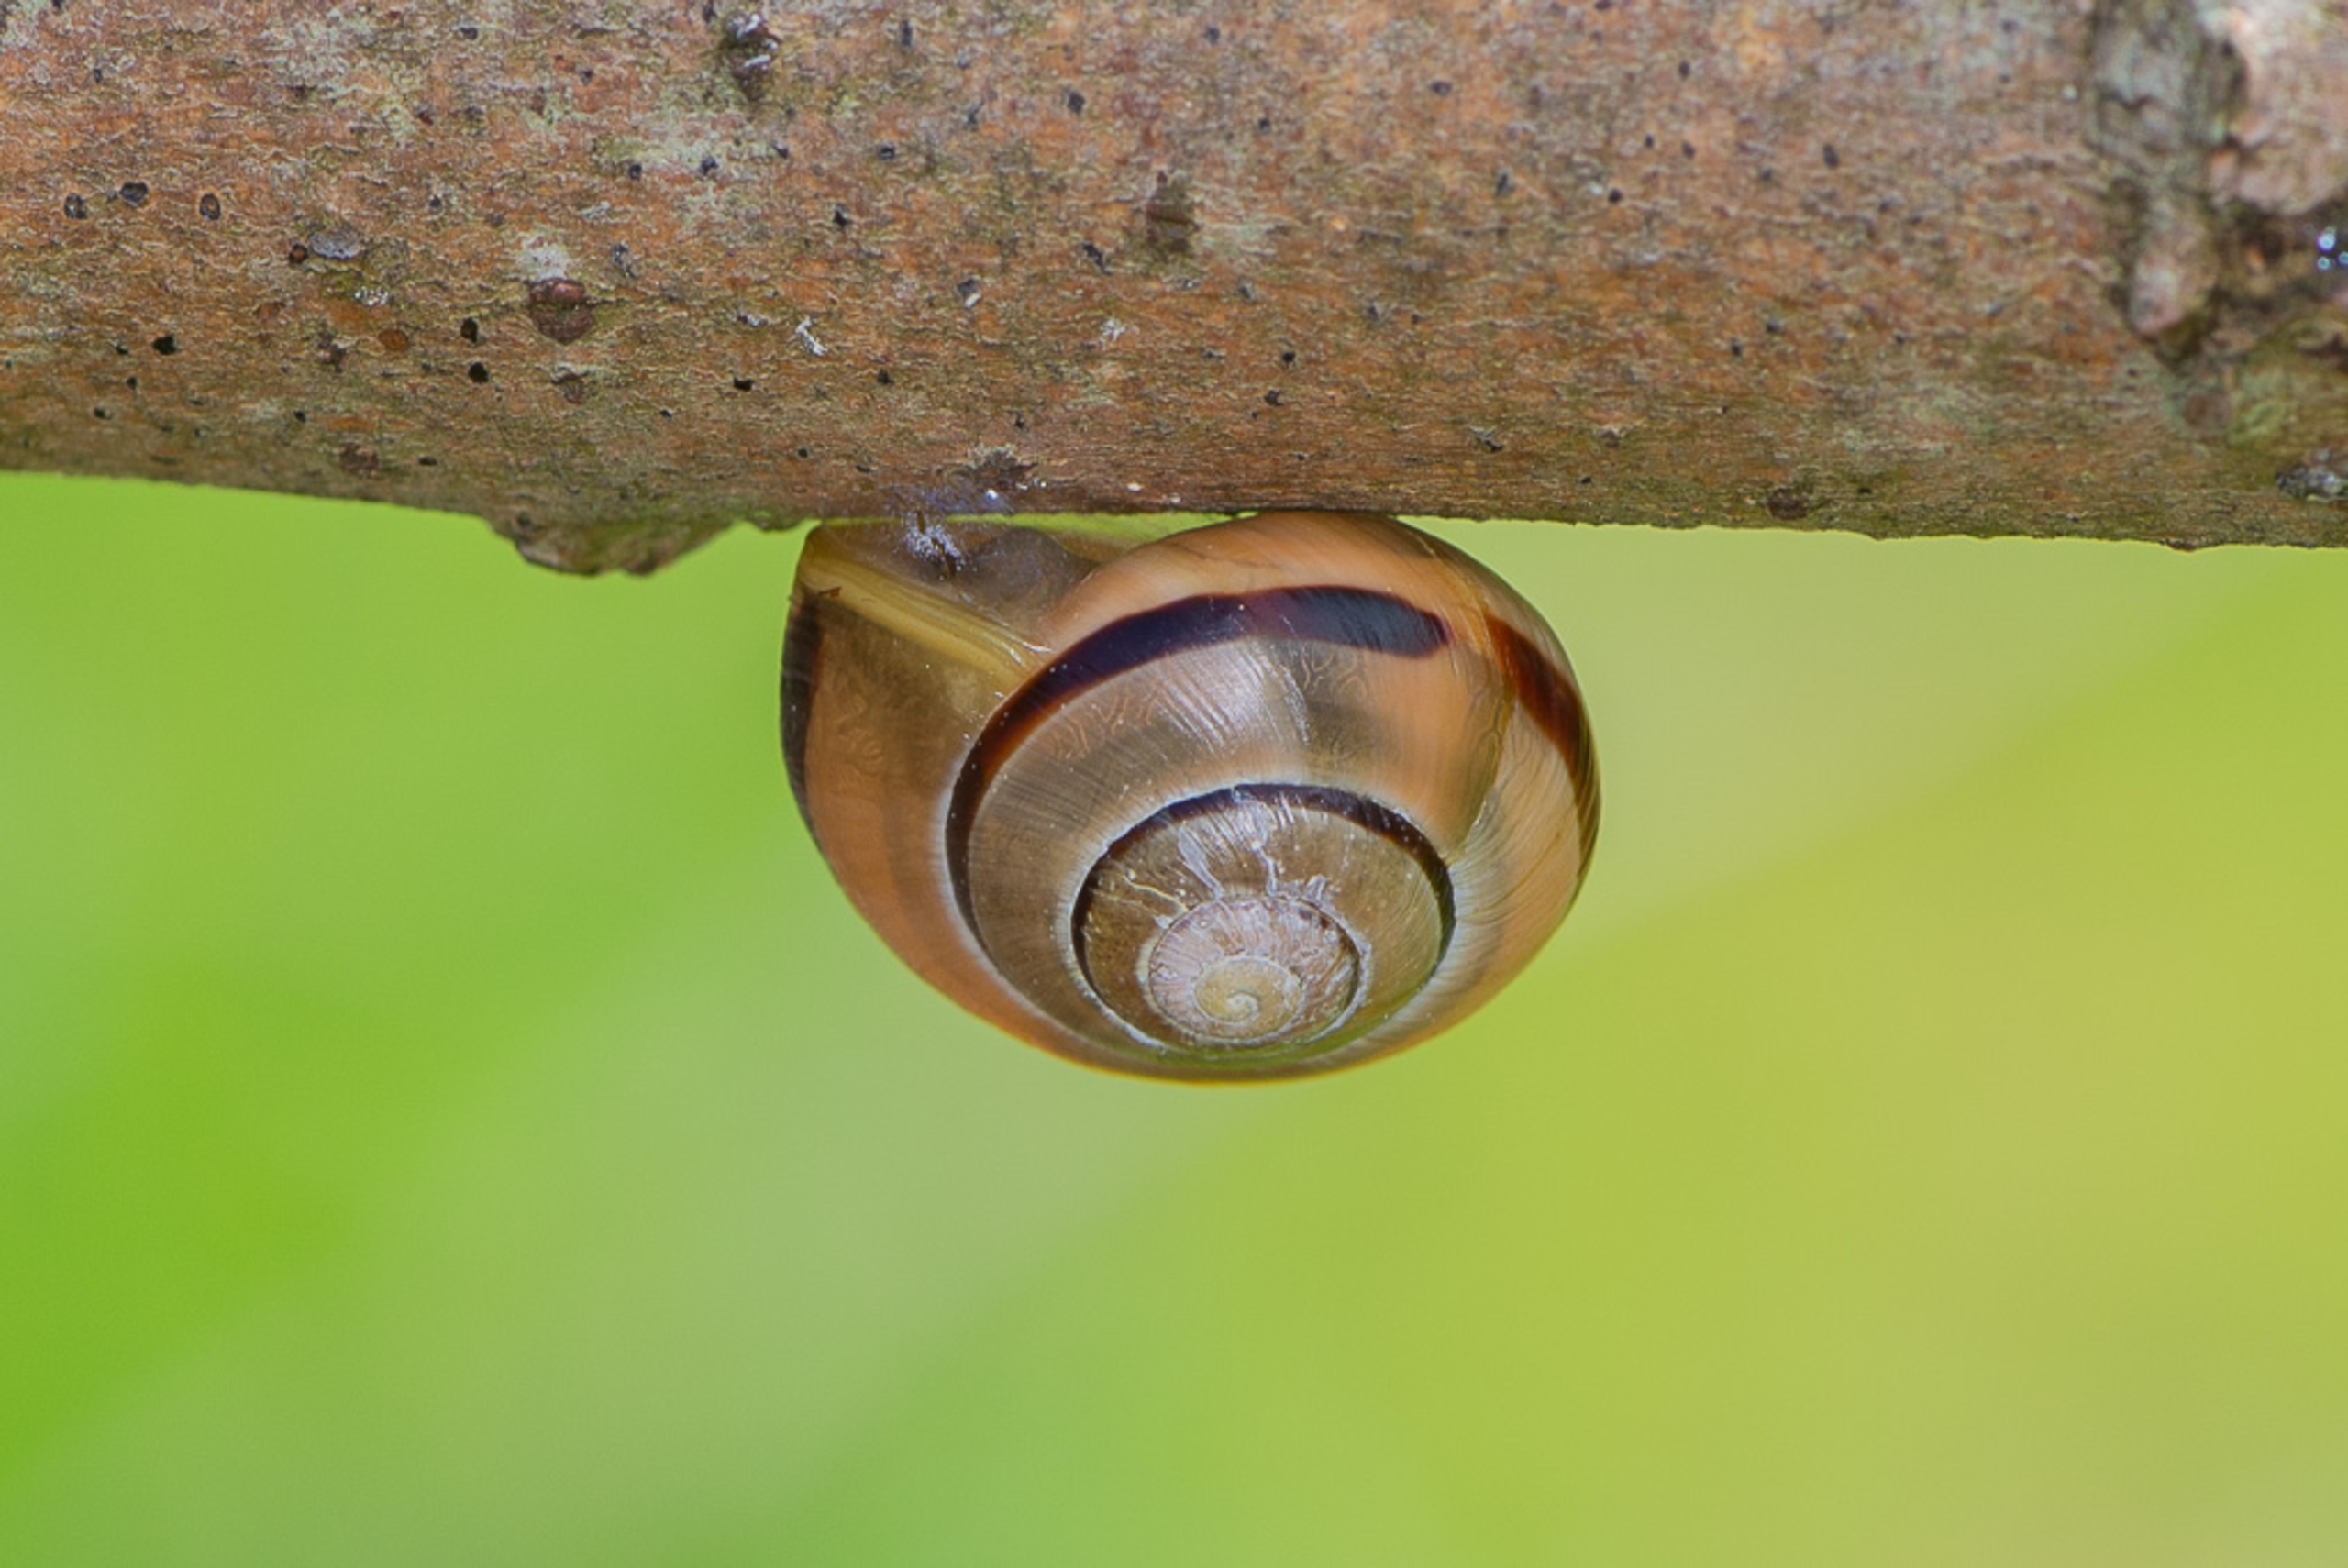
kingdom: Animalia
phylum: Mollusca
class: Gastropoda
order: Stylommatophora
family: Helicidae
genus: Cepaea
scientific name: Cepaea hortensis
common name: Havesnegl
